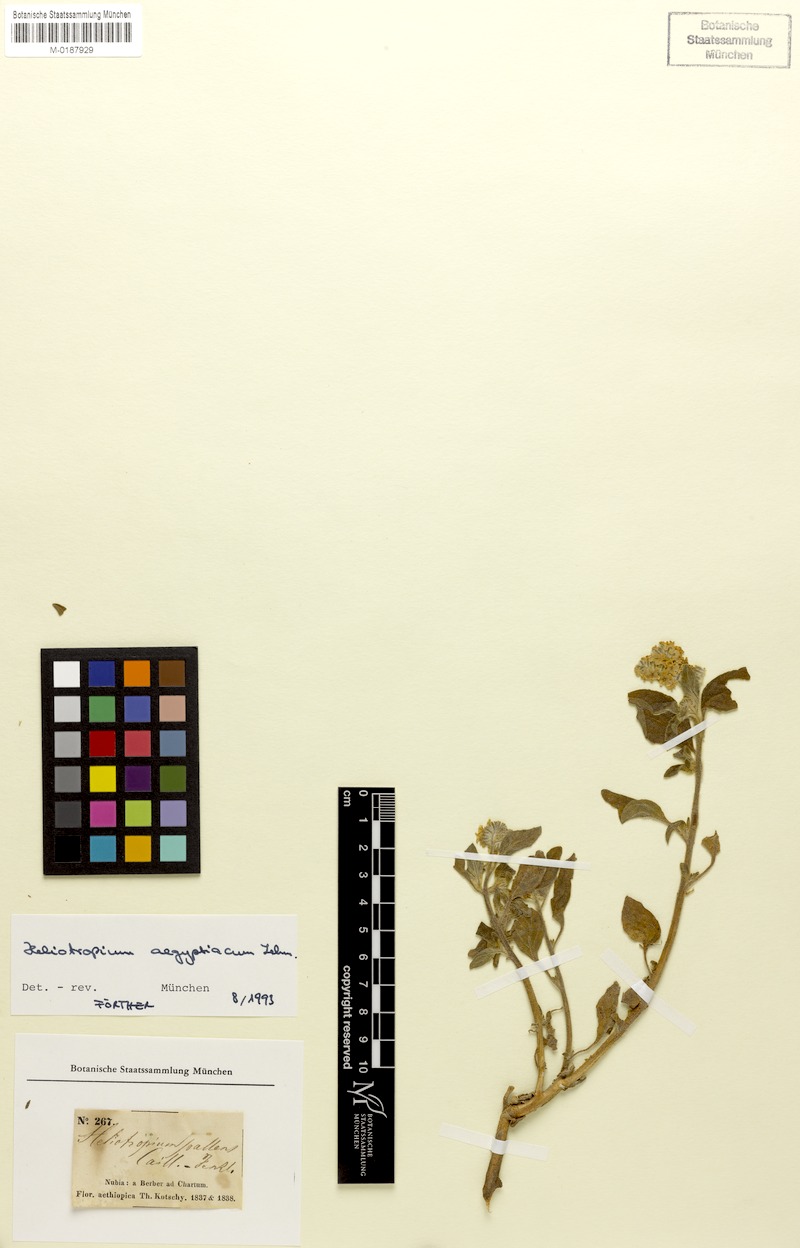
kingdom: Plantae
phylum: Tracheophyta
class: Magnoliopsida
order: Boraginales
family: Heliotropiaceae
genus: Heliotropium
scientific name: Heliotropium aegyptiacum
